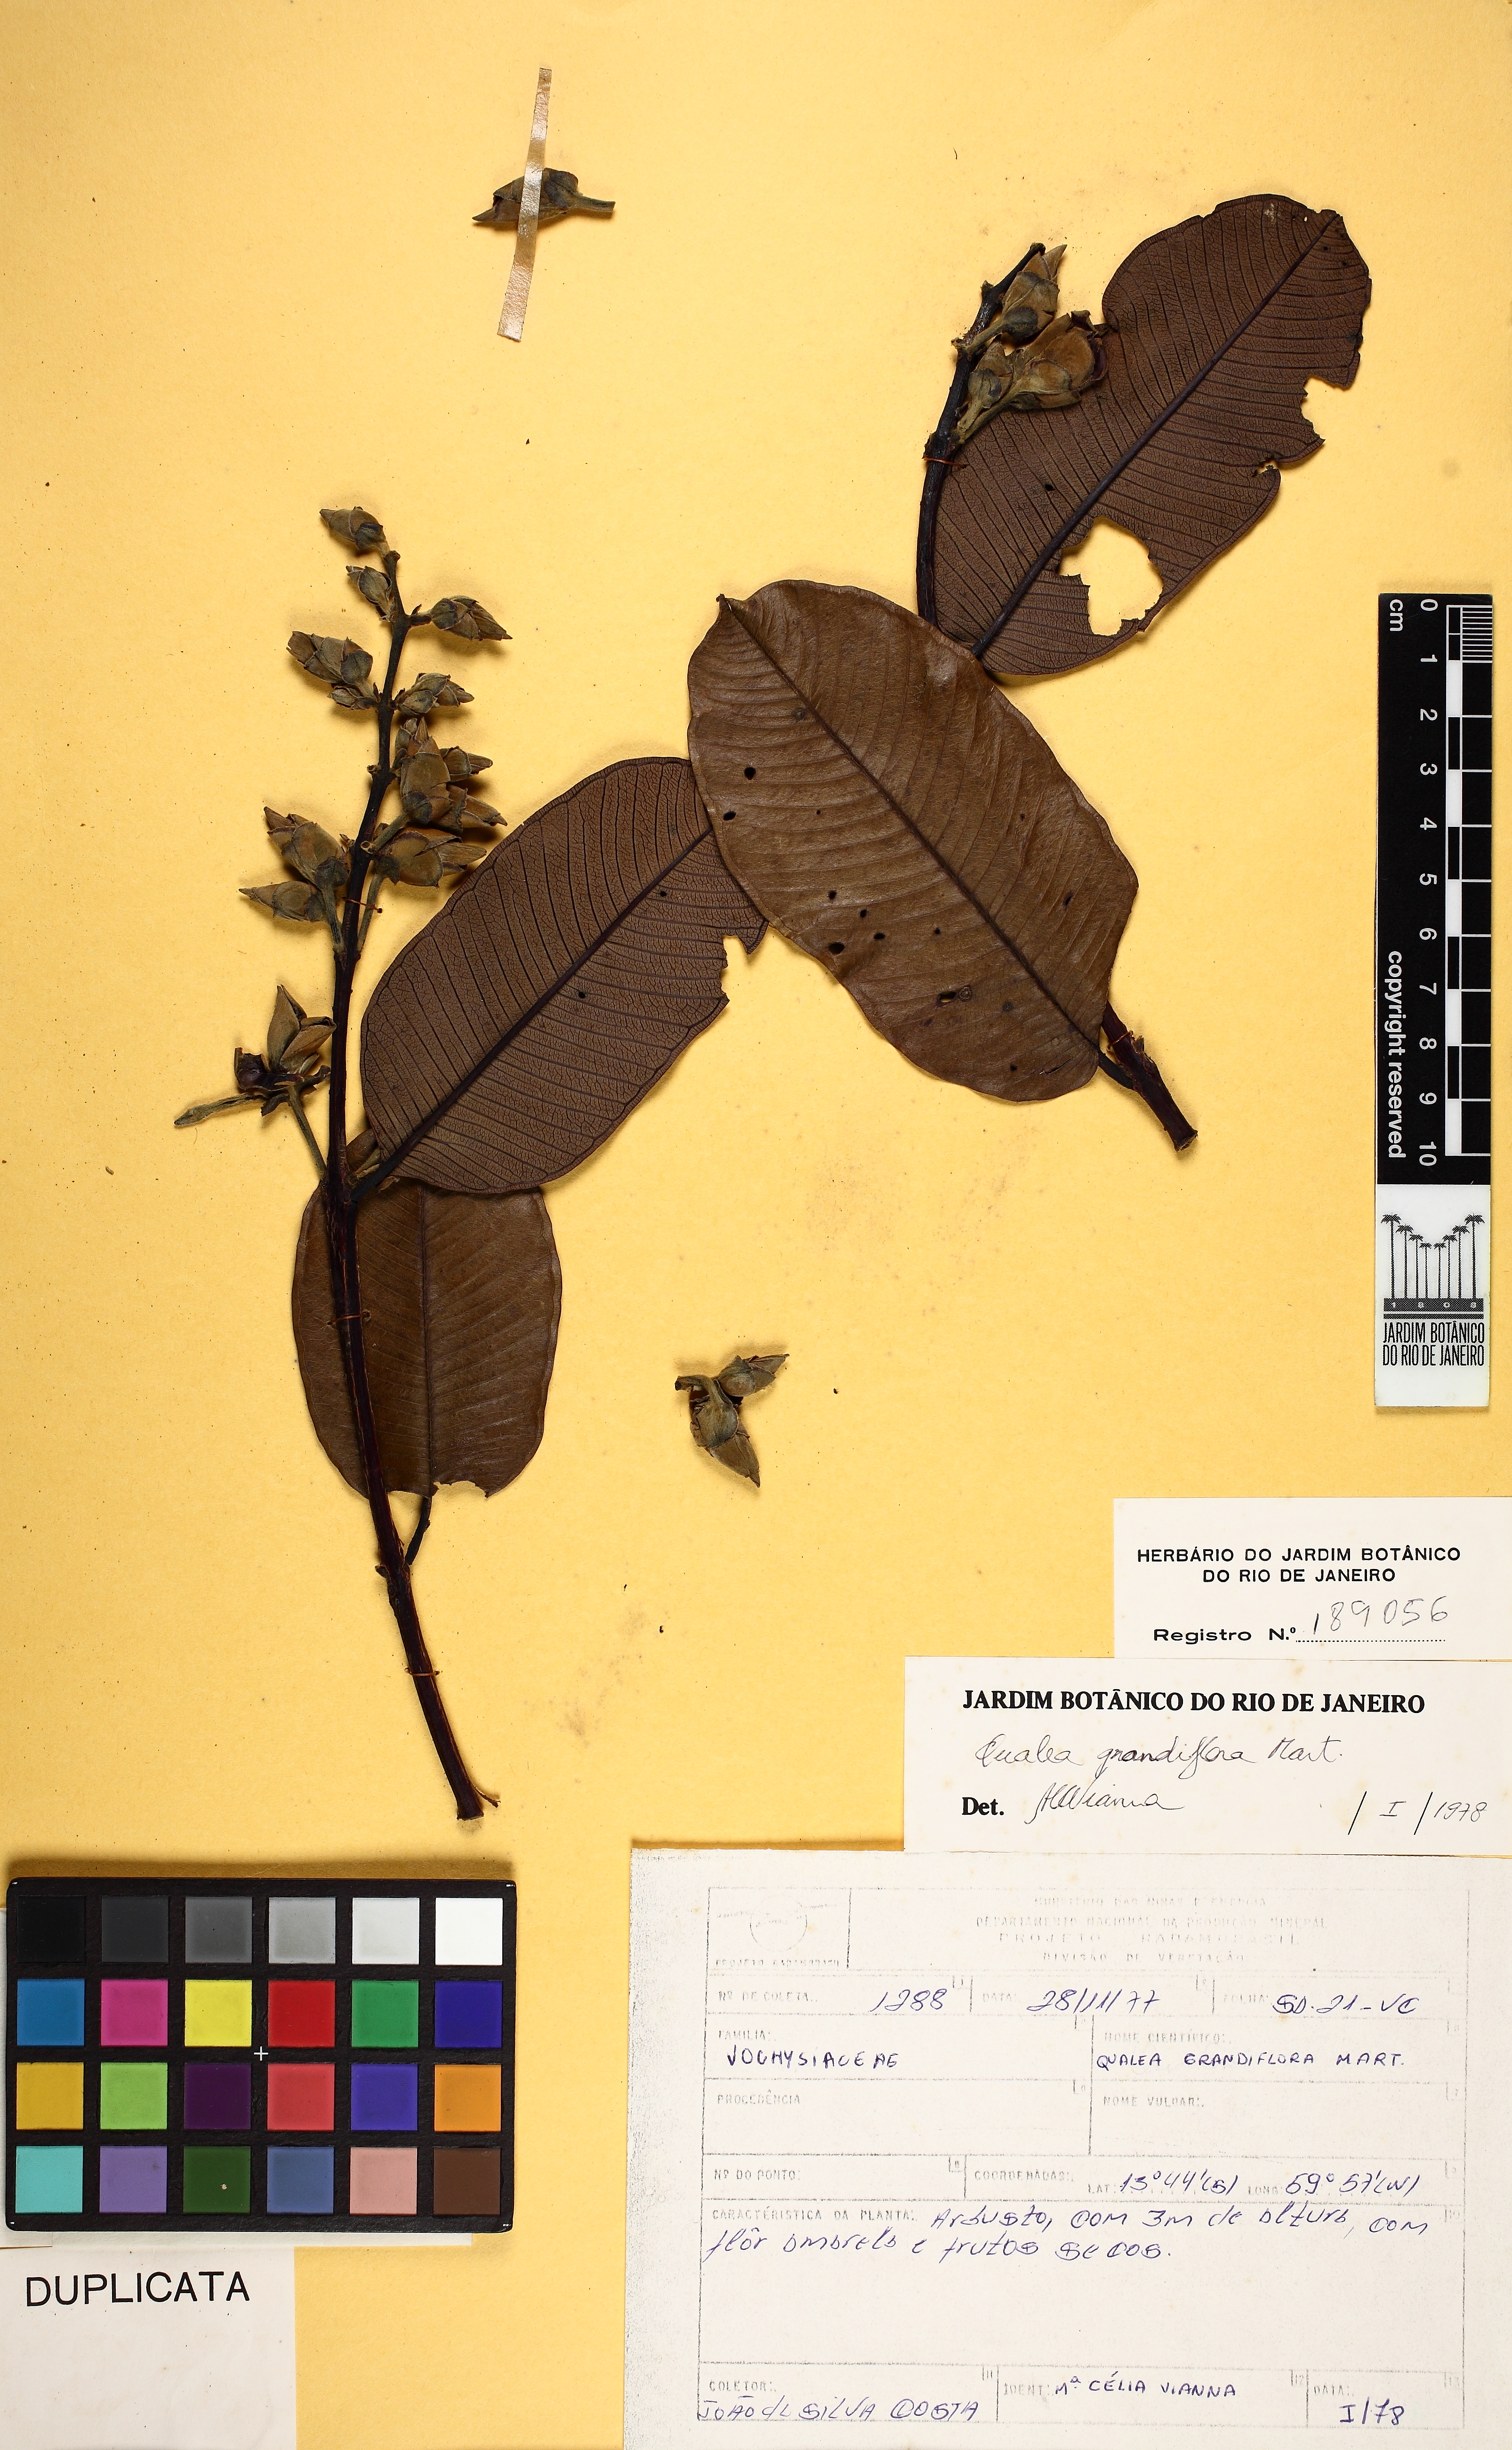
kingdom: Plantae
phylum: Tracheophyta
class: Magnoliopsida
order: Myrtales
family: Vochysiaceae
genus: Qualea
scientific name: Qualea grandiflora
